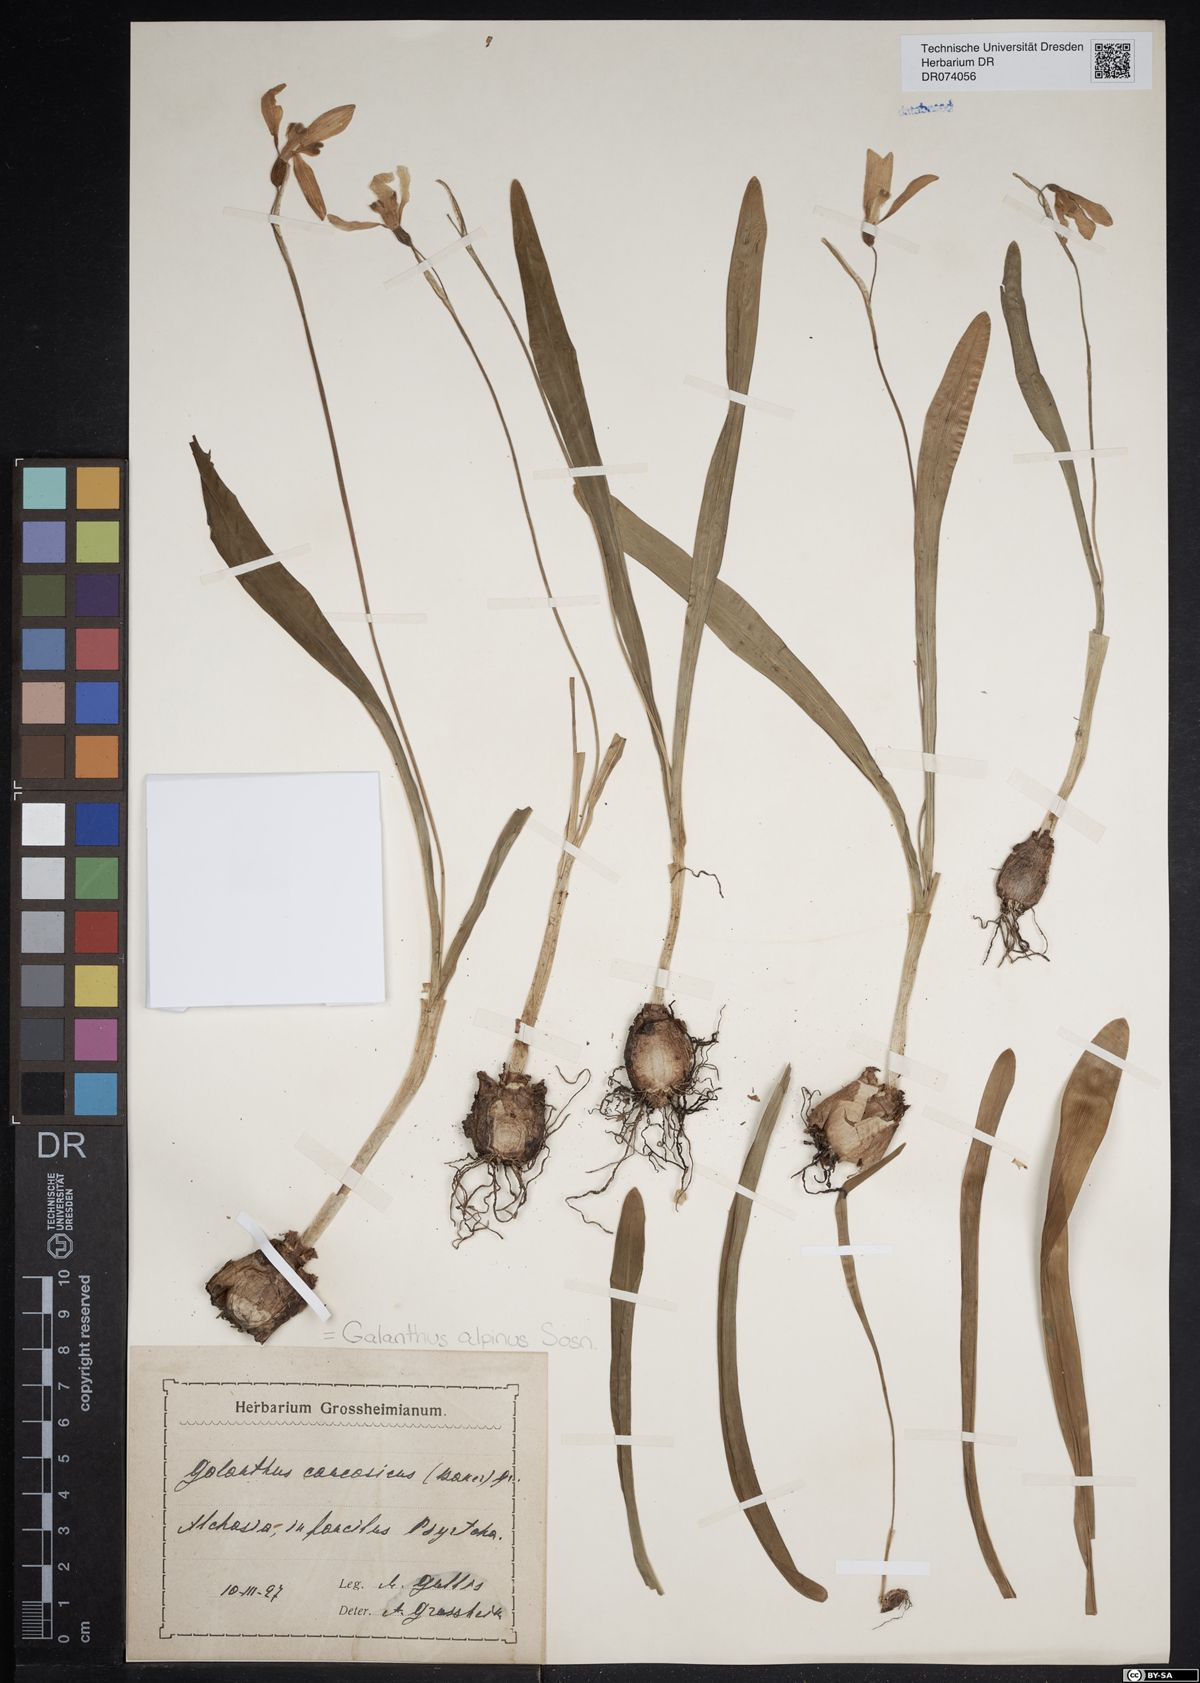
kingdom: Plantae
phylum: Tracheophyta
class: Liliopsida
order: Asparagales
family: Amaryllidaceae
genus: Galanthus
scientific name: Galanthus alpinus
